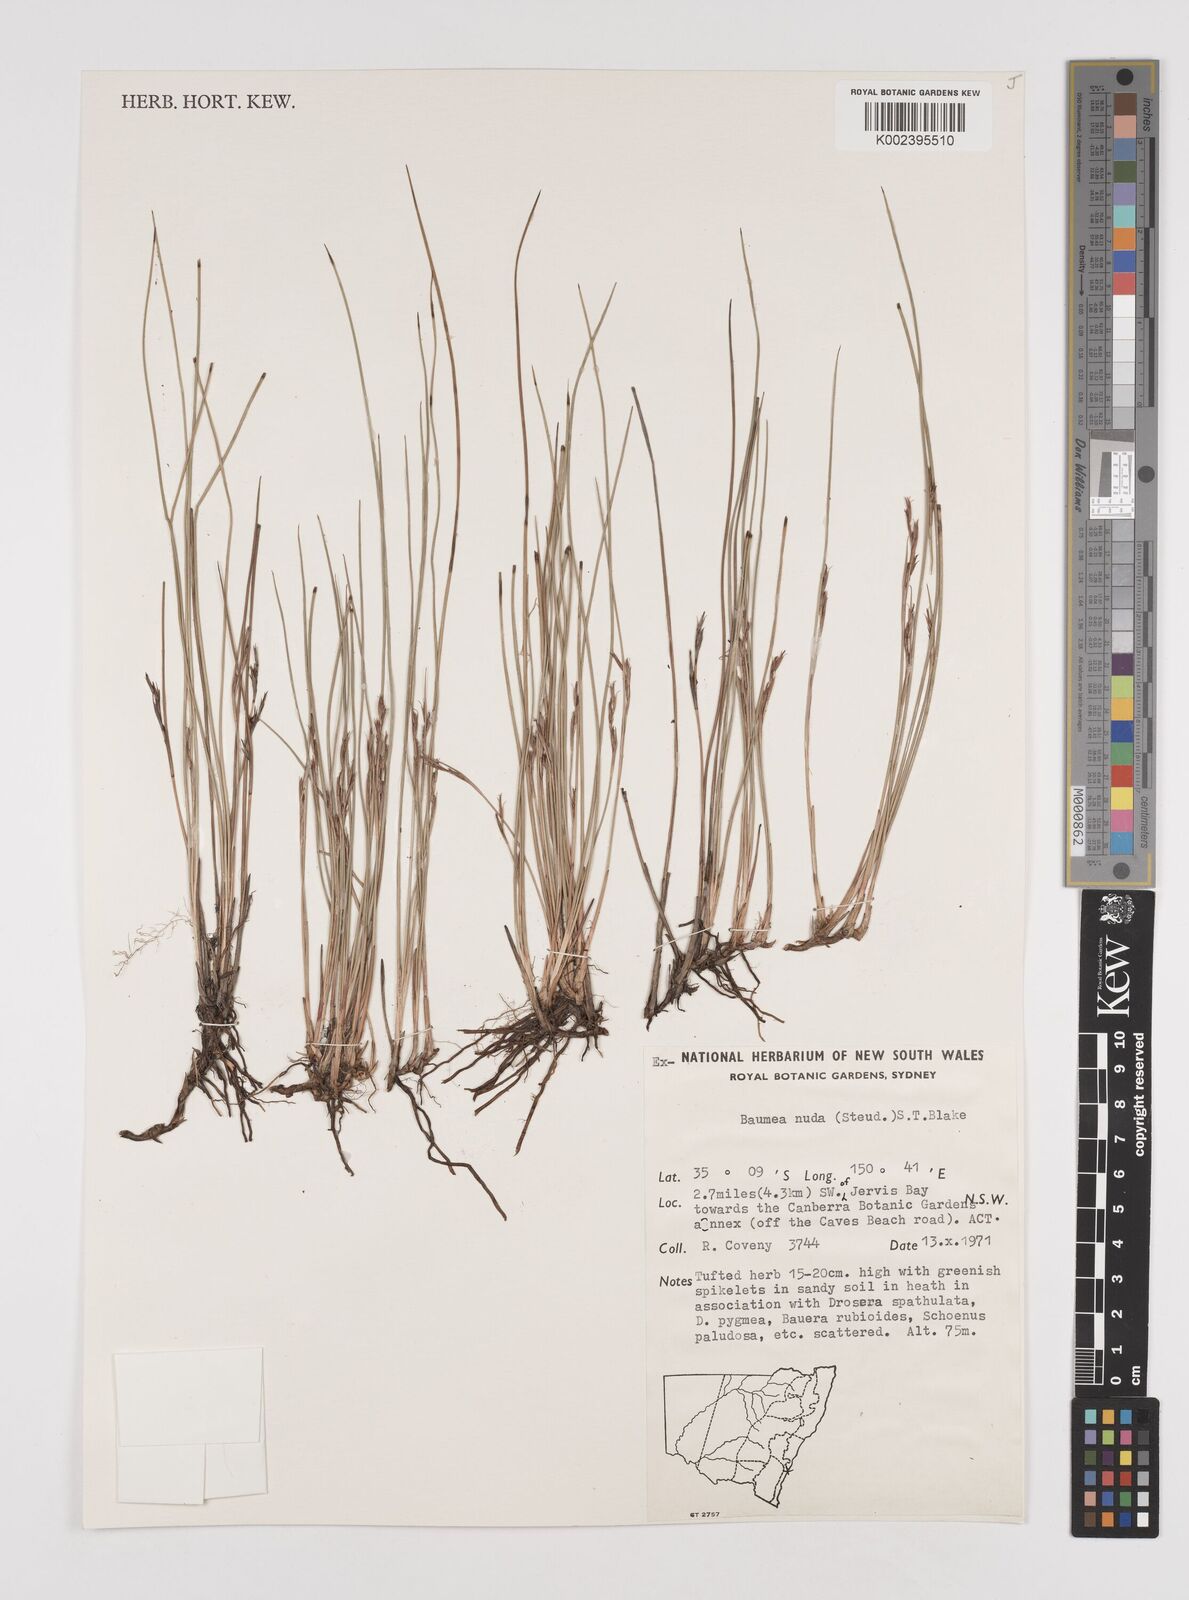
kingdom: Plantae
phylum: Tracheophyta
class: Liliopsida
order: Poales
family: Cyperaceae
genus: Machaerina
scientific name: Machaerina nuda
